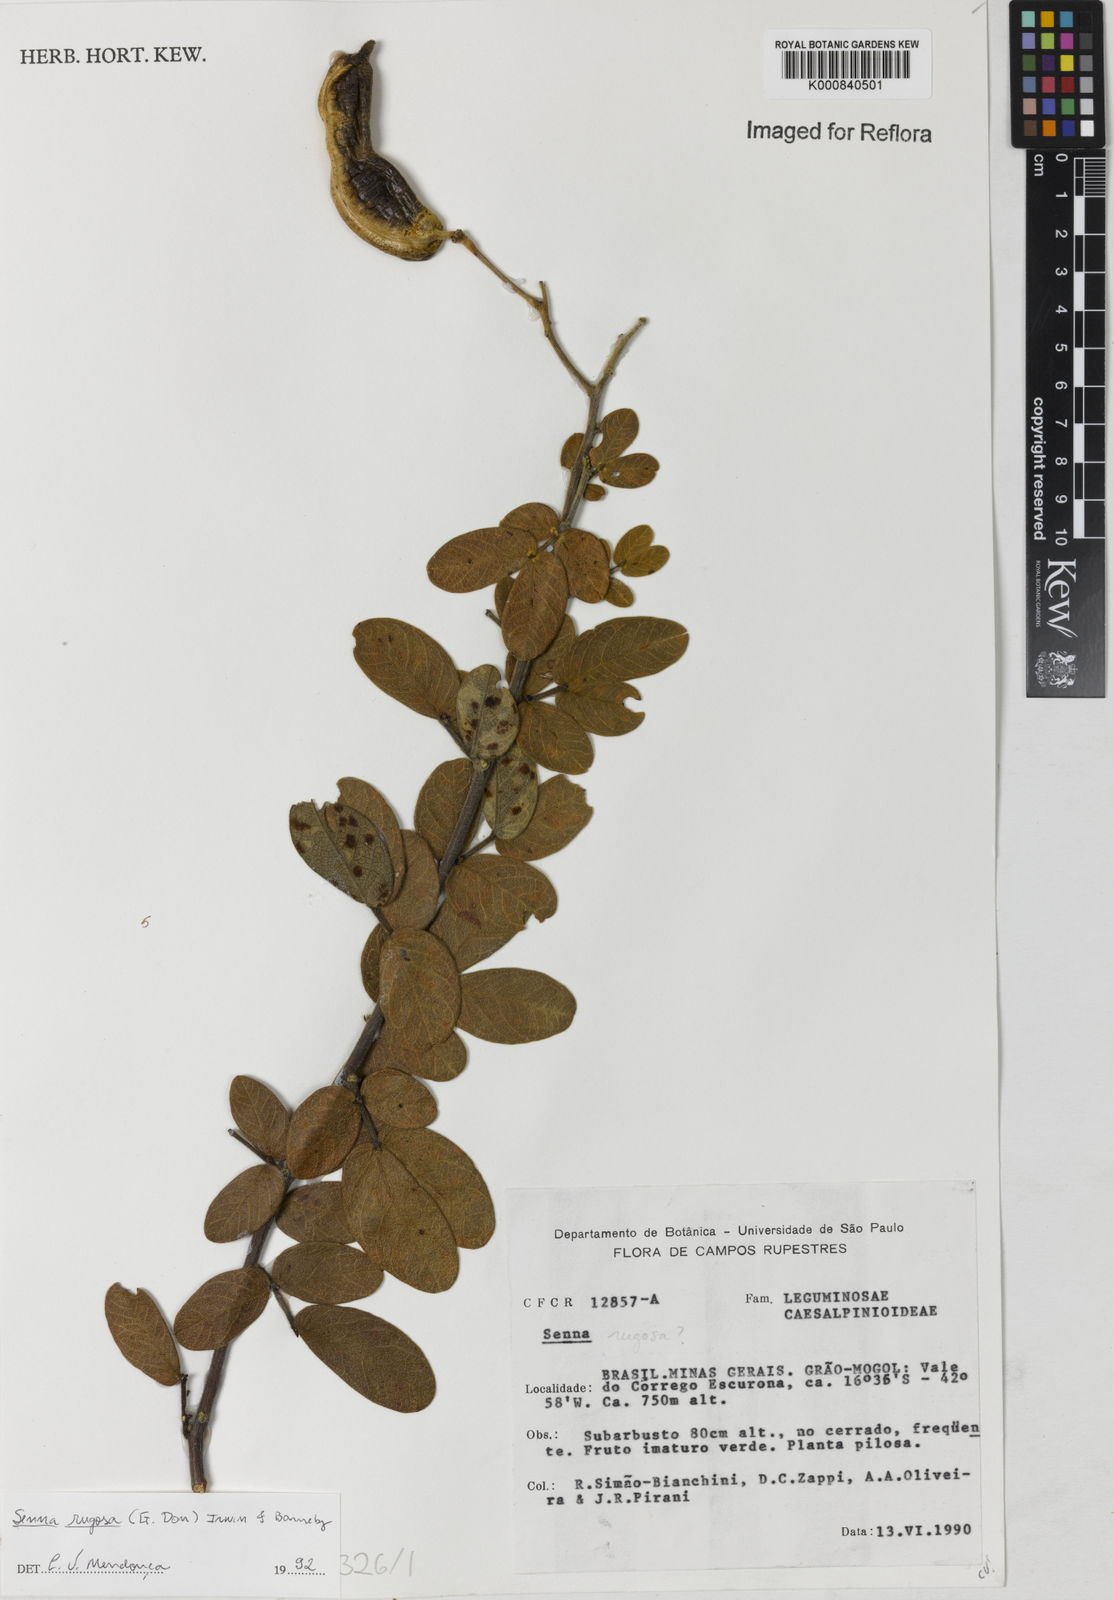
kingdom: Plantae
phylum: Tracheophyta
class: Magnoliopsida
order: Fabales
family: Fabaceae
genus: Senna
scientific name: Senna rugosa
